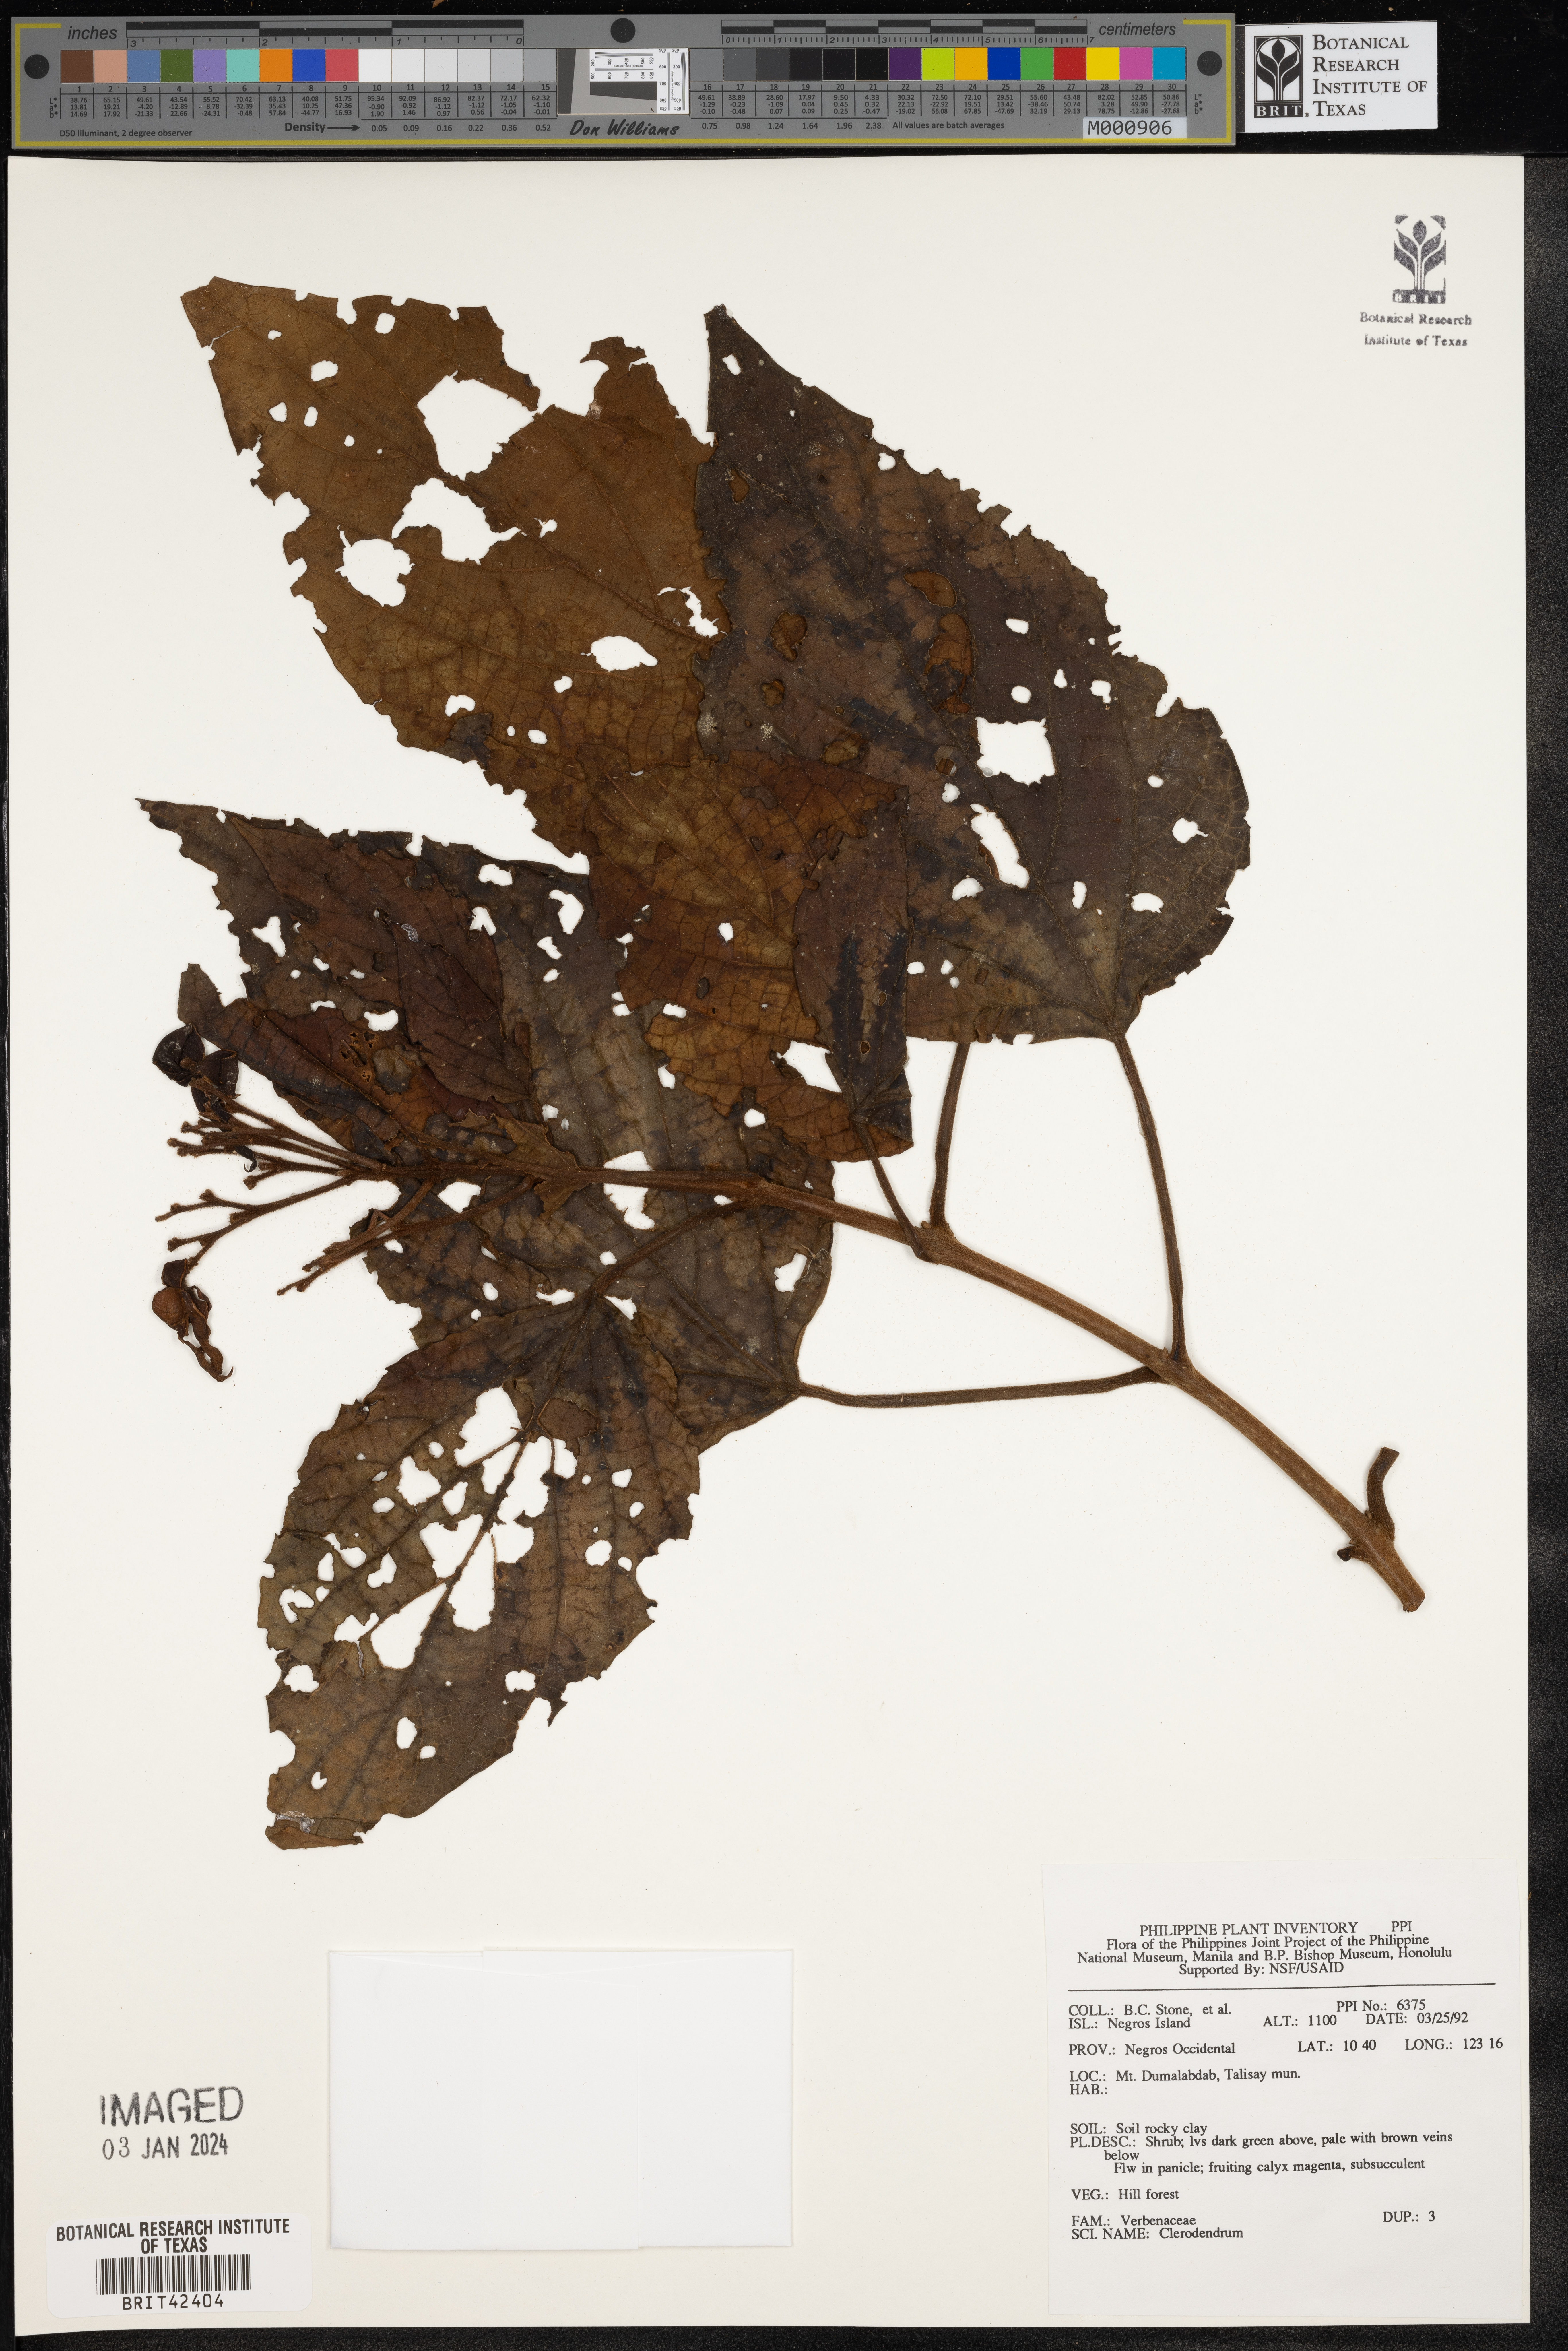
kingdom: Plantae
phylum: Tracheophyta
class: Magnoliopsida
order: Lamiales
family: Lamiaceae
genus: Clerodendrum
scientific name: Clerodendrum
